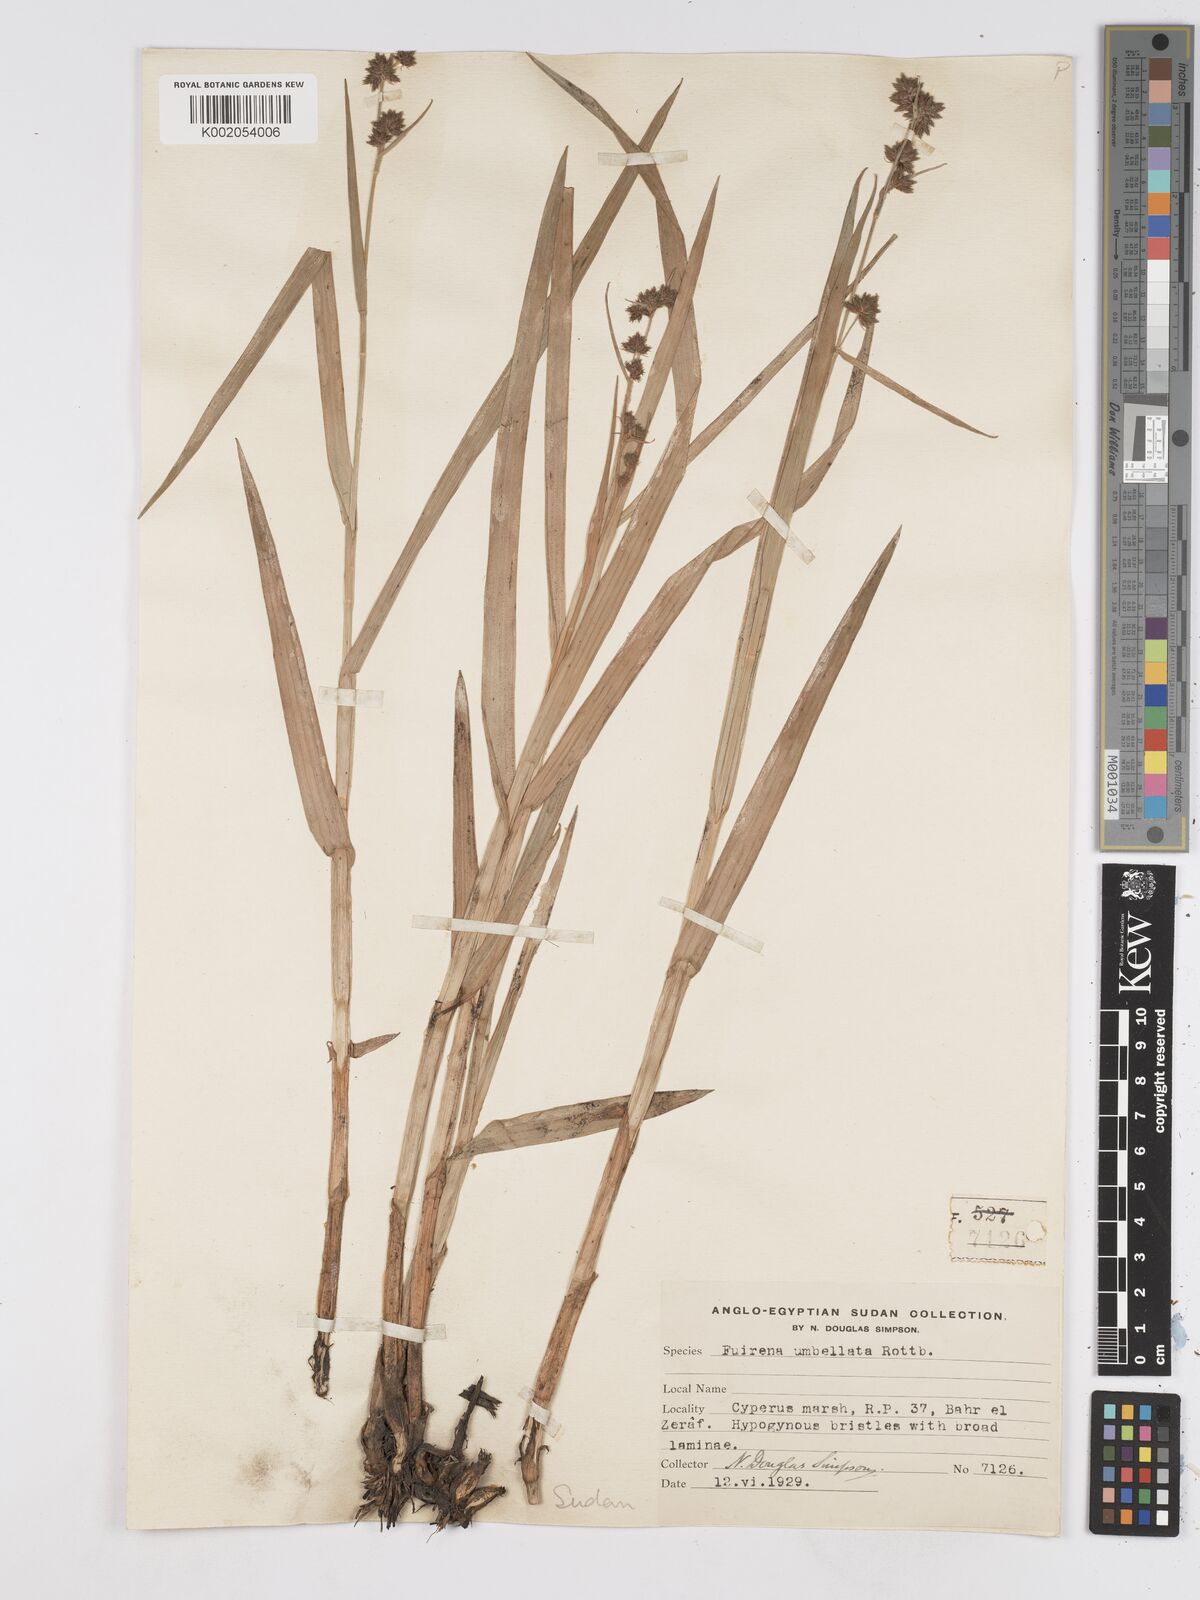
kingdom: Plantae
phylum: Tracheophyta
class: Liliopsida
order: Poales
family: Cyperaceae
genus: Fuirena
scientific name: Fuirena umbellata
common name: Yefen
